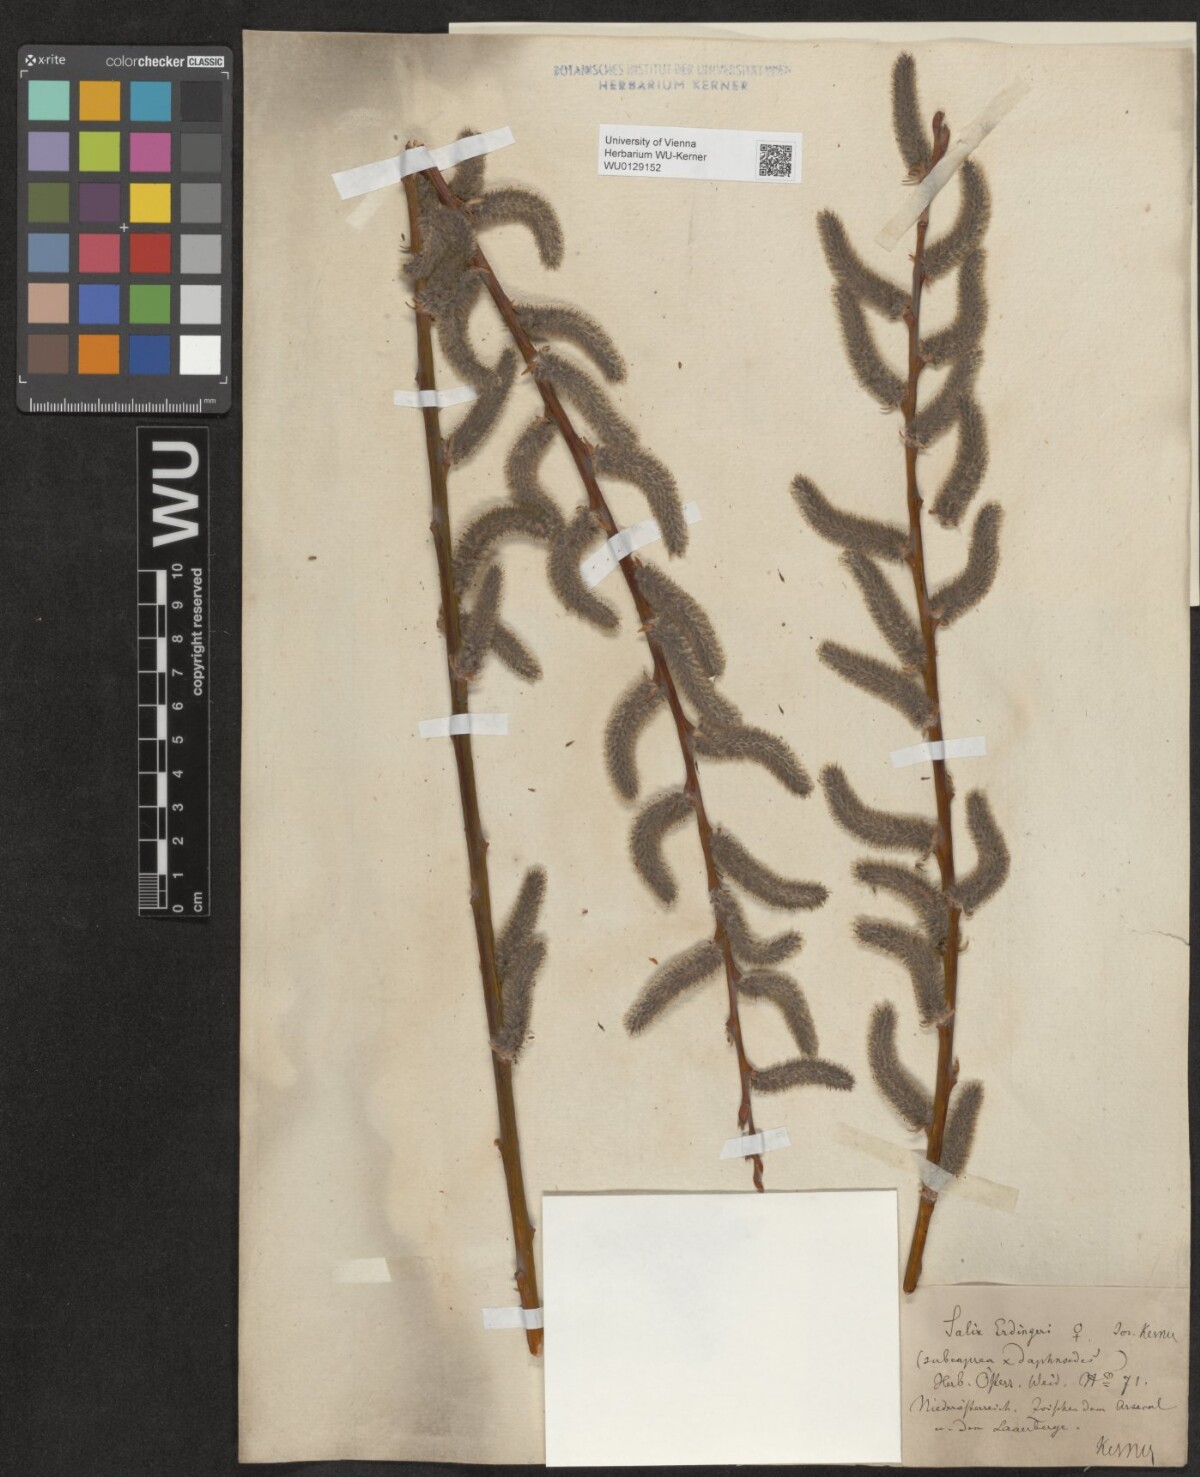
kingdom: Plantae
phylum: Tracheophyta
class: Magnoliopsida
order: Malpighiales
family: Salicaceae
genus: Salix
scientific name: Salix erdingeri
